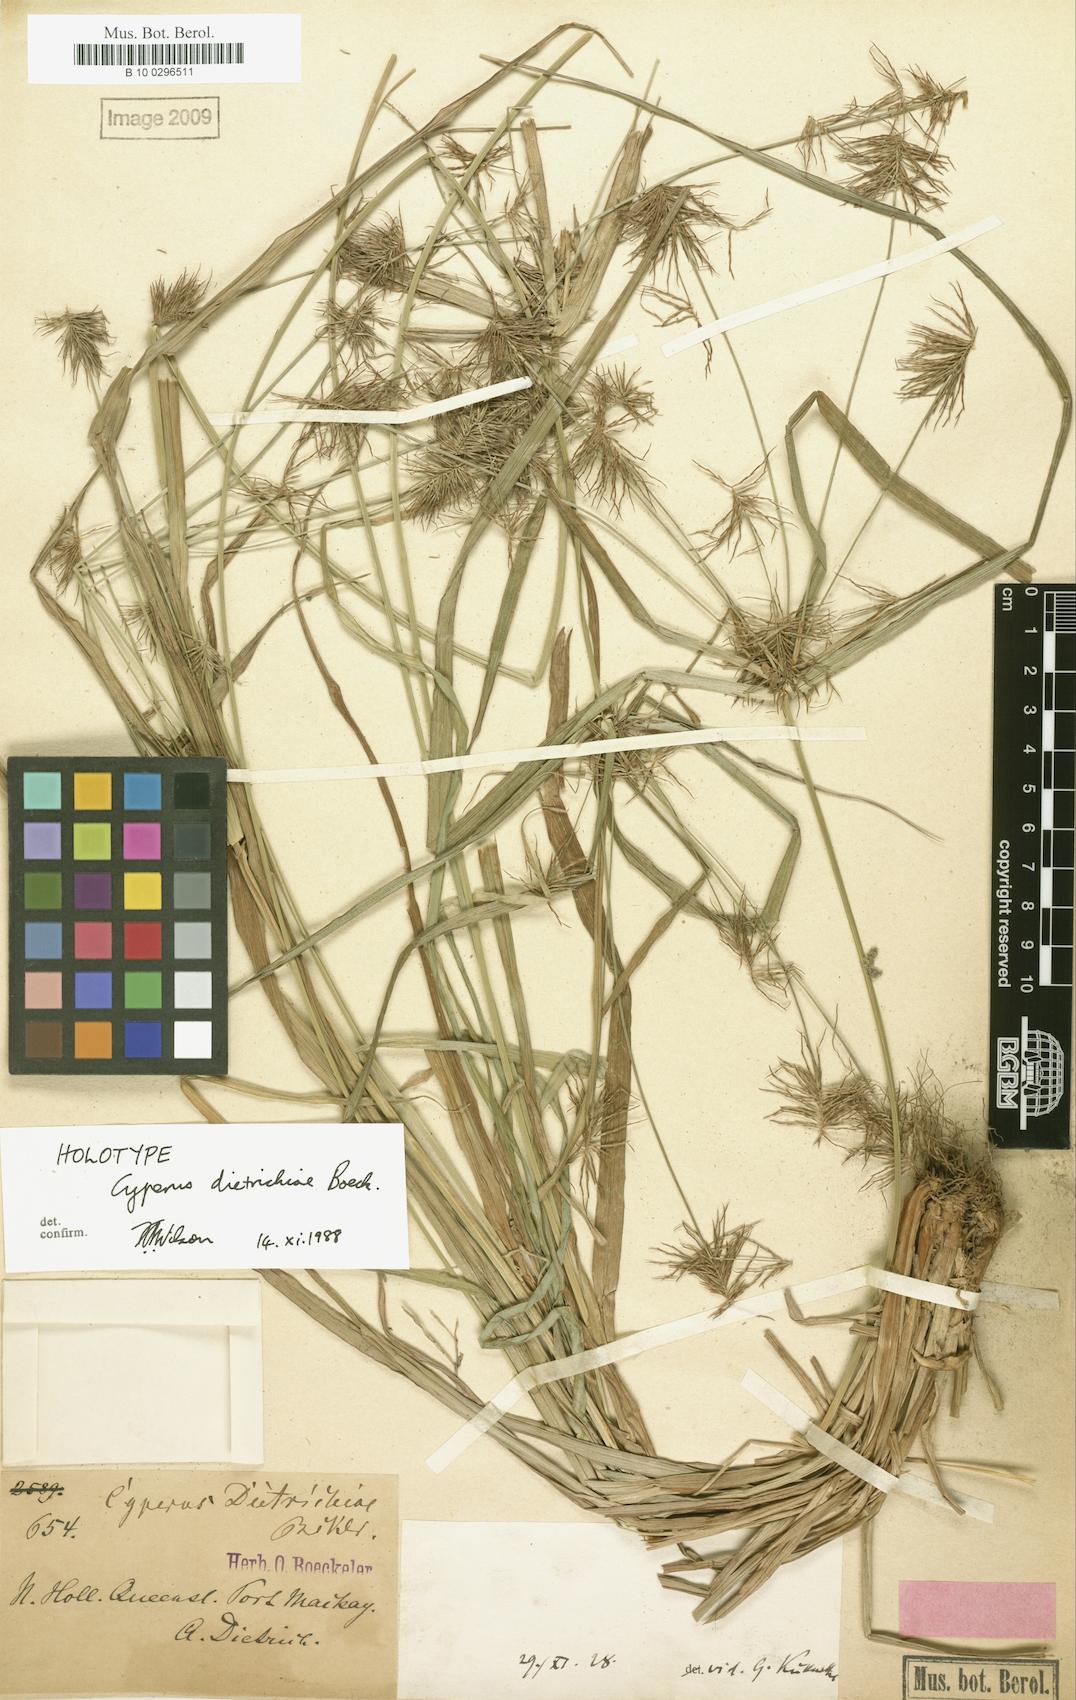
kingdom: Plantae
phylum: Tracheophyta
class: Liliopsida
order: Poales
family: Cyperaceae
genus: Cyperus
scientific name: Cyperus dietrichiae
